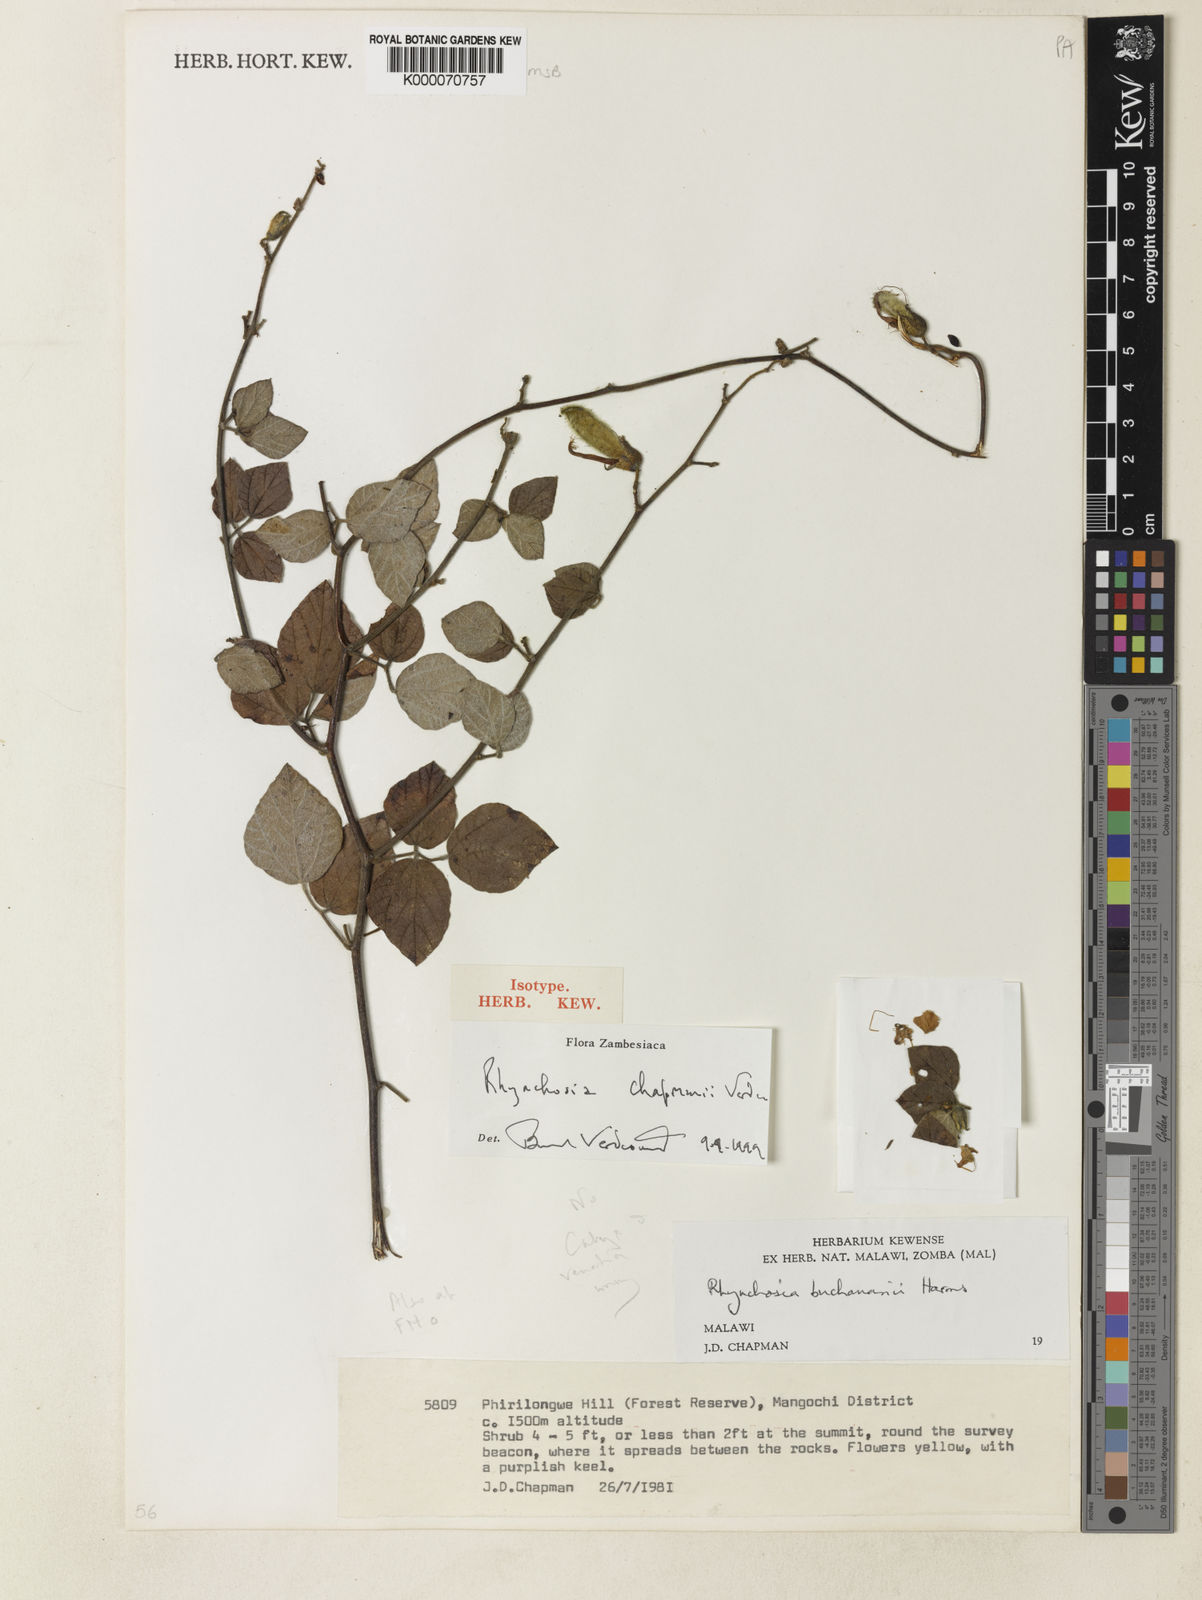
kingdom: Plantae
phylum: Tracheophyta
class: Magnoliopsida
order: Fabales
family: Fabaceae
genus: Rhynchosia
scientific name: Rhynchosia chapmanii
